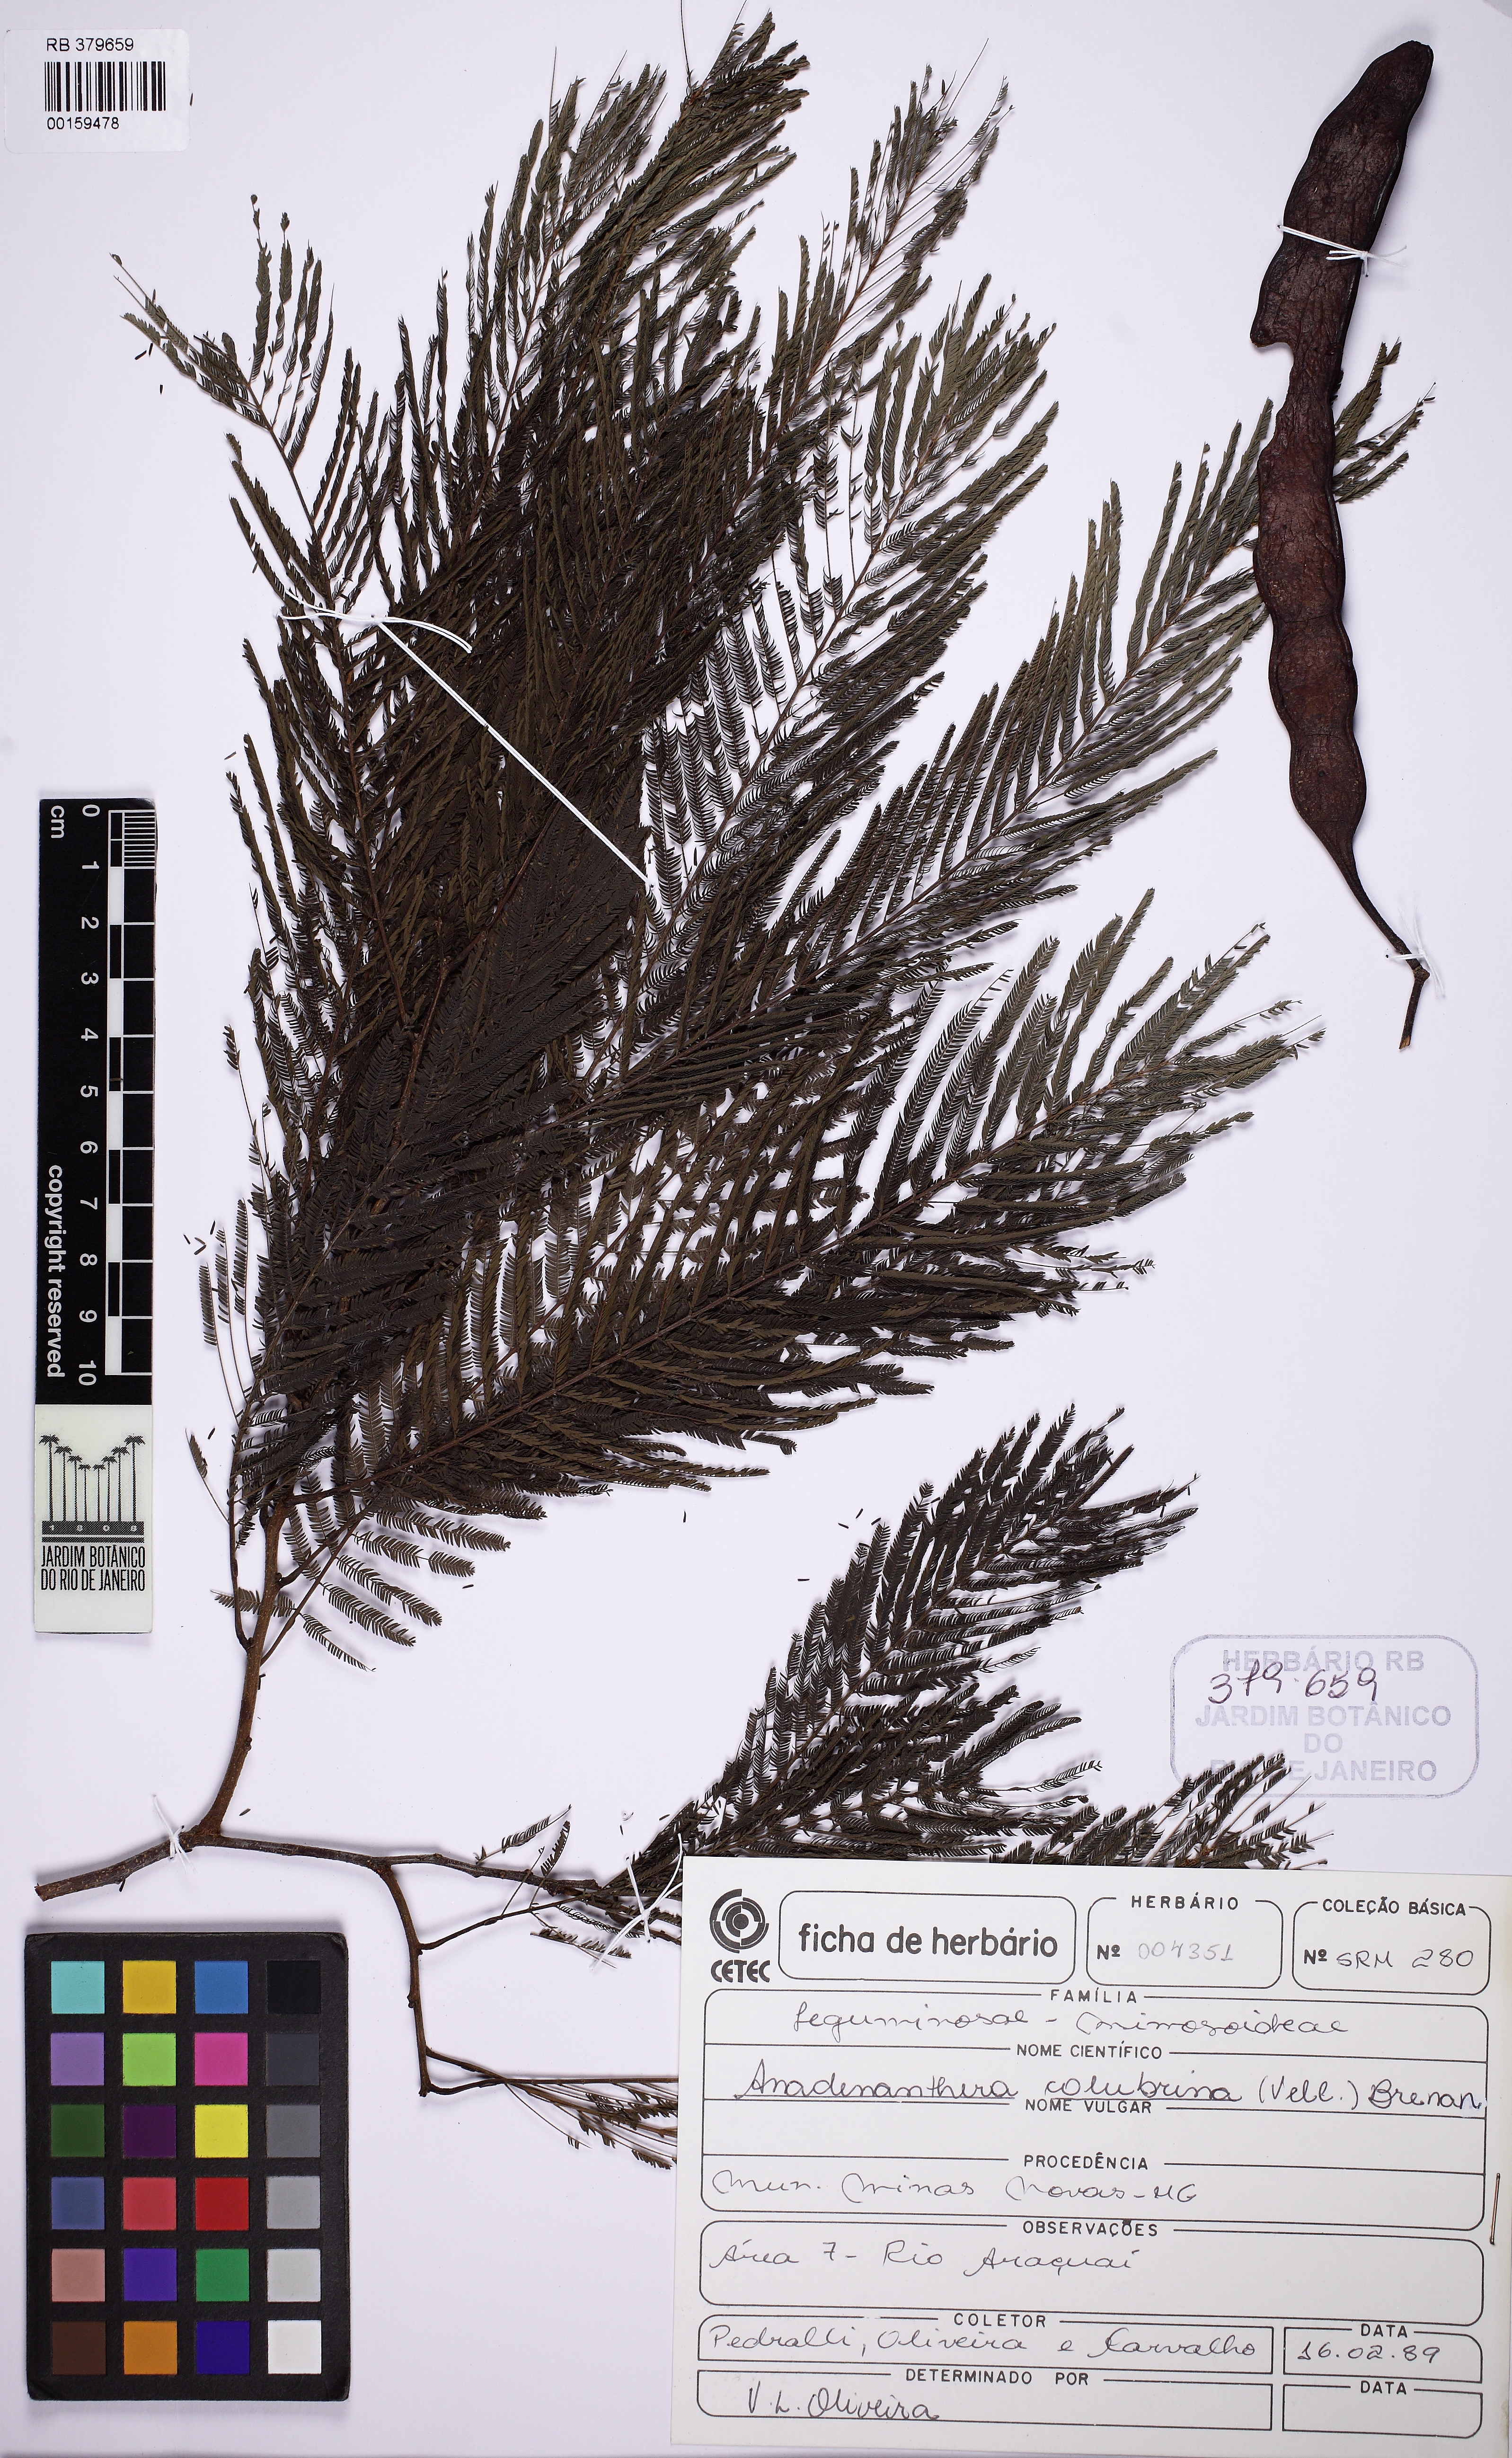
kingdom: Plantae
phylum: Tracheophyta
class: Magnoliopsida
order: Fabales
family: Fabaceae
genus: Anadenanthera
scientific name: Anadenanthera colubrina
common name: Curupay
